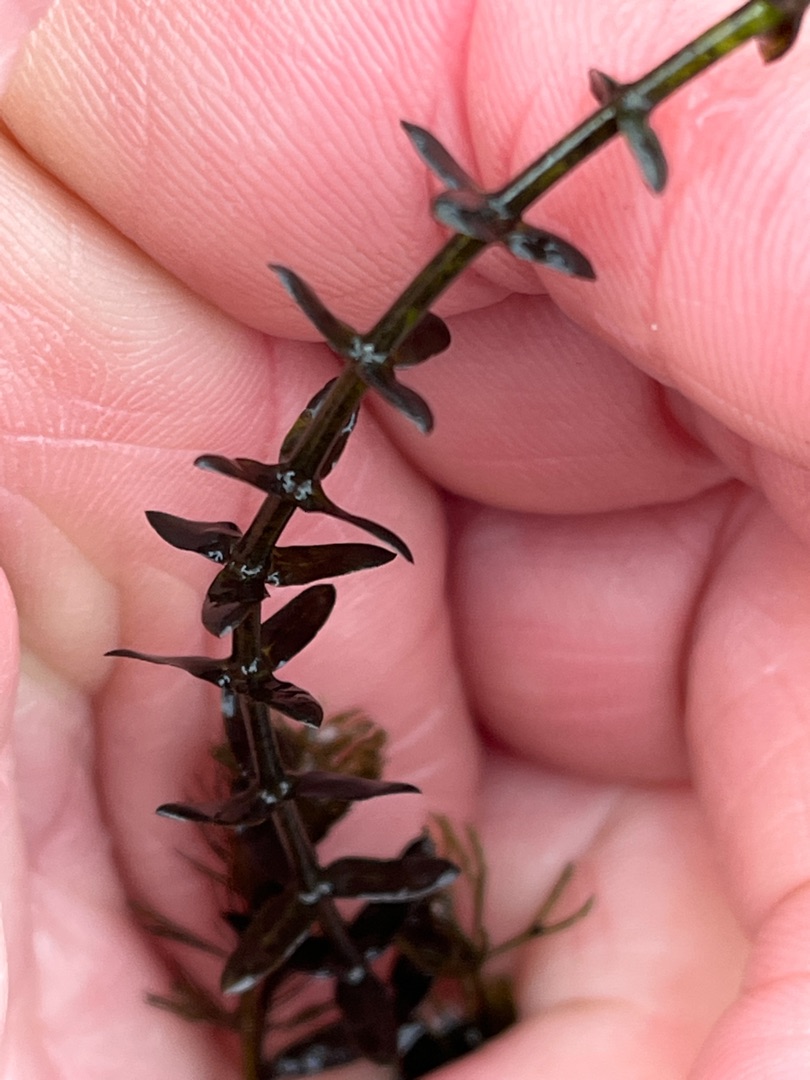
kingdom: Plantae
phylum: Tracheophyta
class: Liliopsida
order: Alismatales
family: Hydrocharitaceae
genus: Elodea
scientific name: Elodea canadensis
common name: Vandpest
